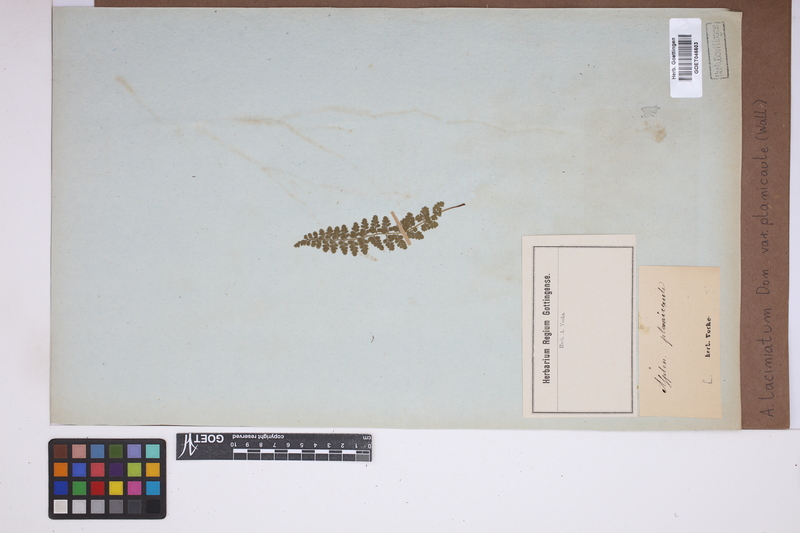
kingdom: Plantae
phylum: Tracheophyta
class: Polypodiopsida
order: Polypodiales
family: Aspleniaceae
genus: Asplenium
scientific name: Asplenium lividum
